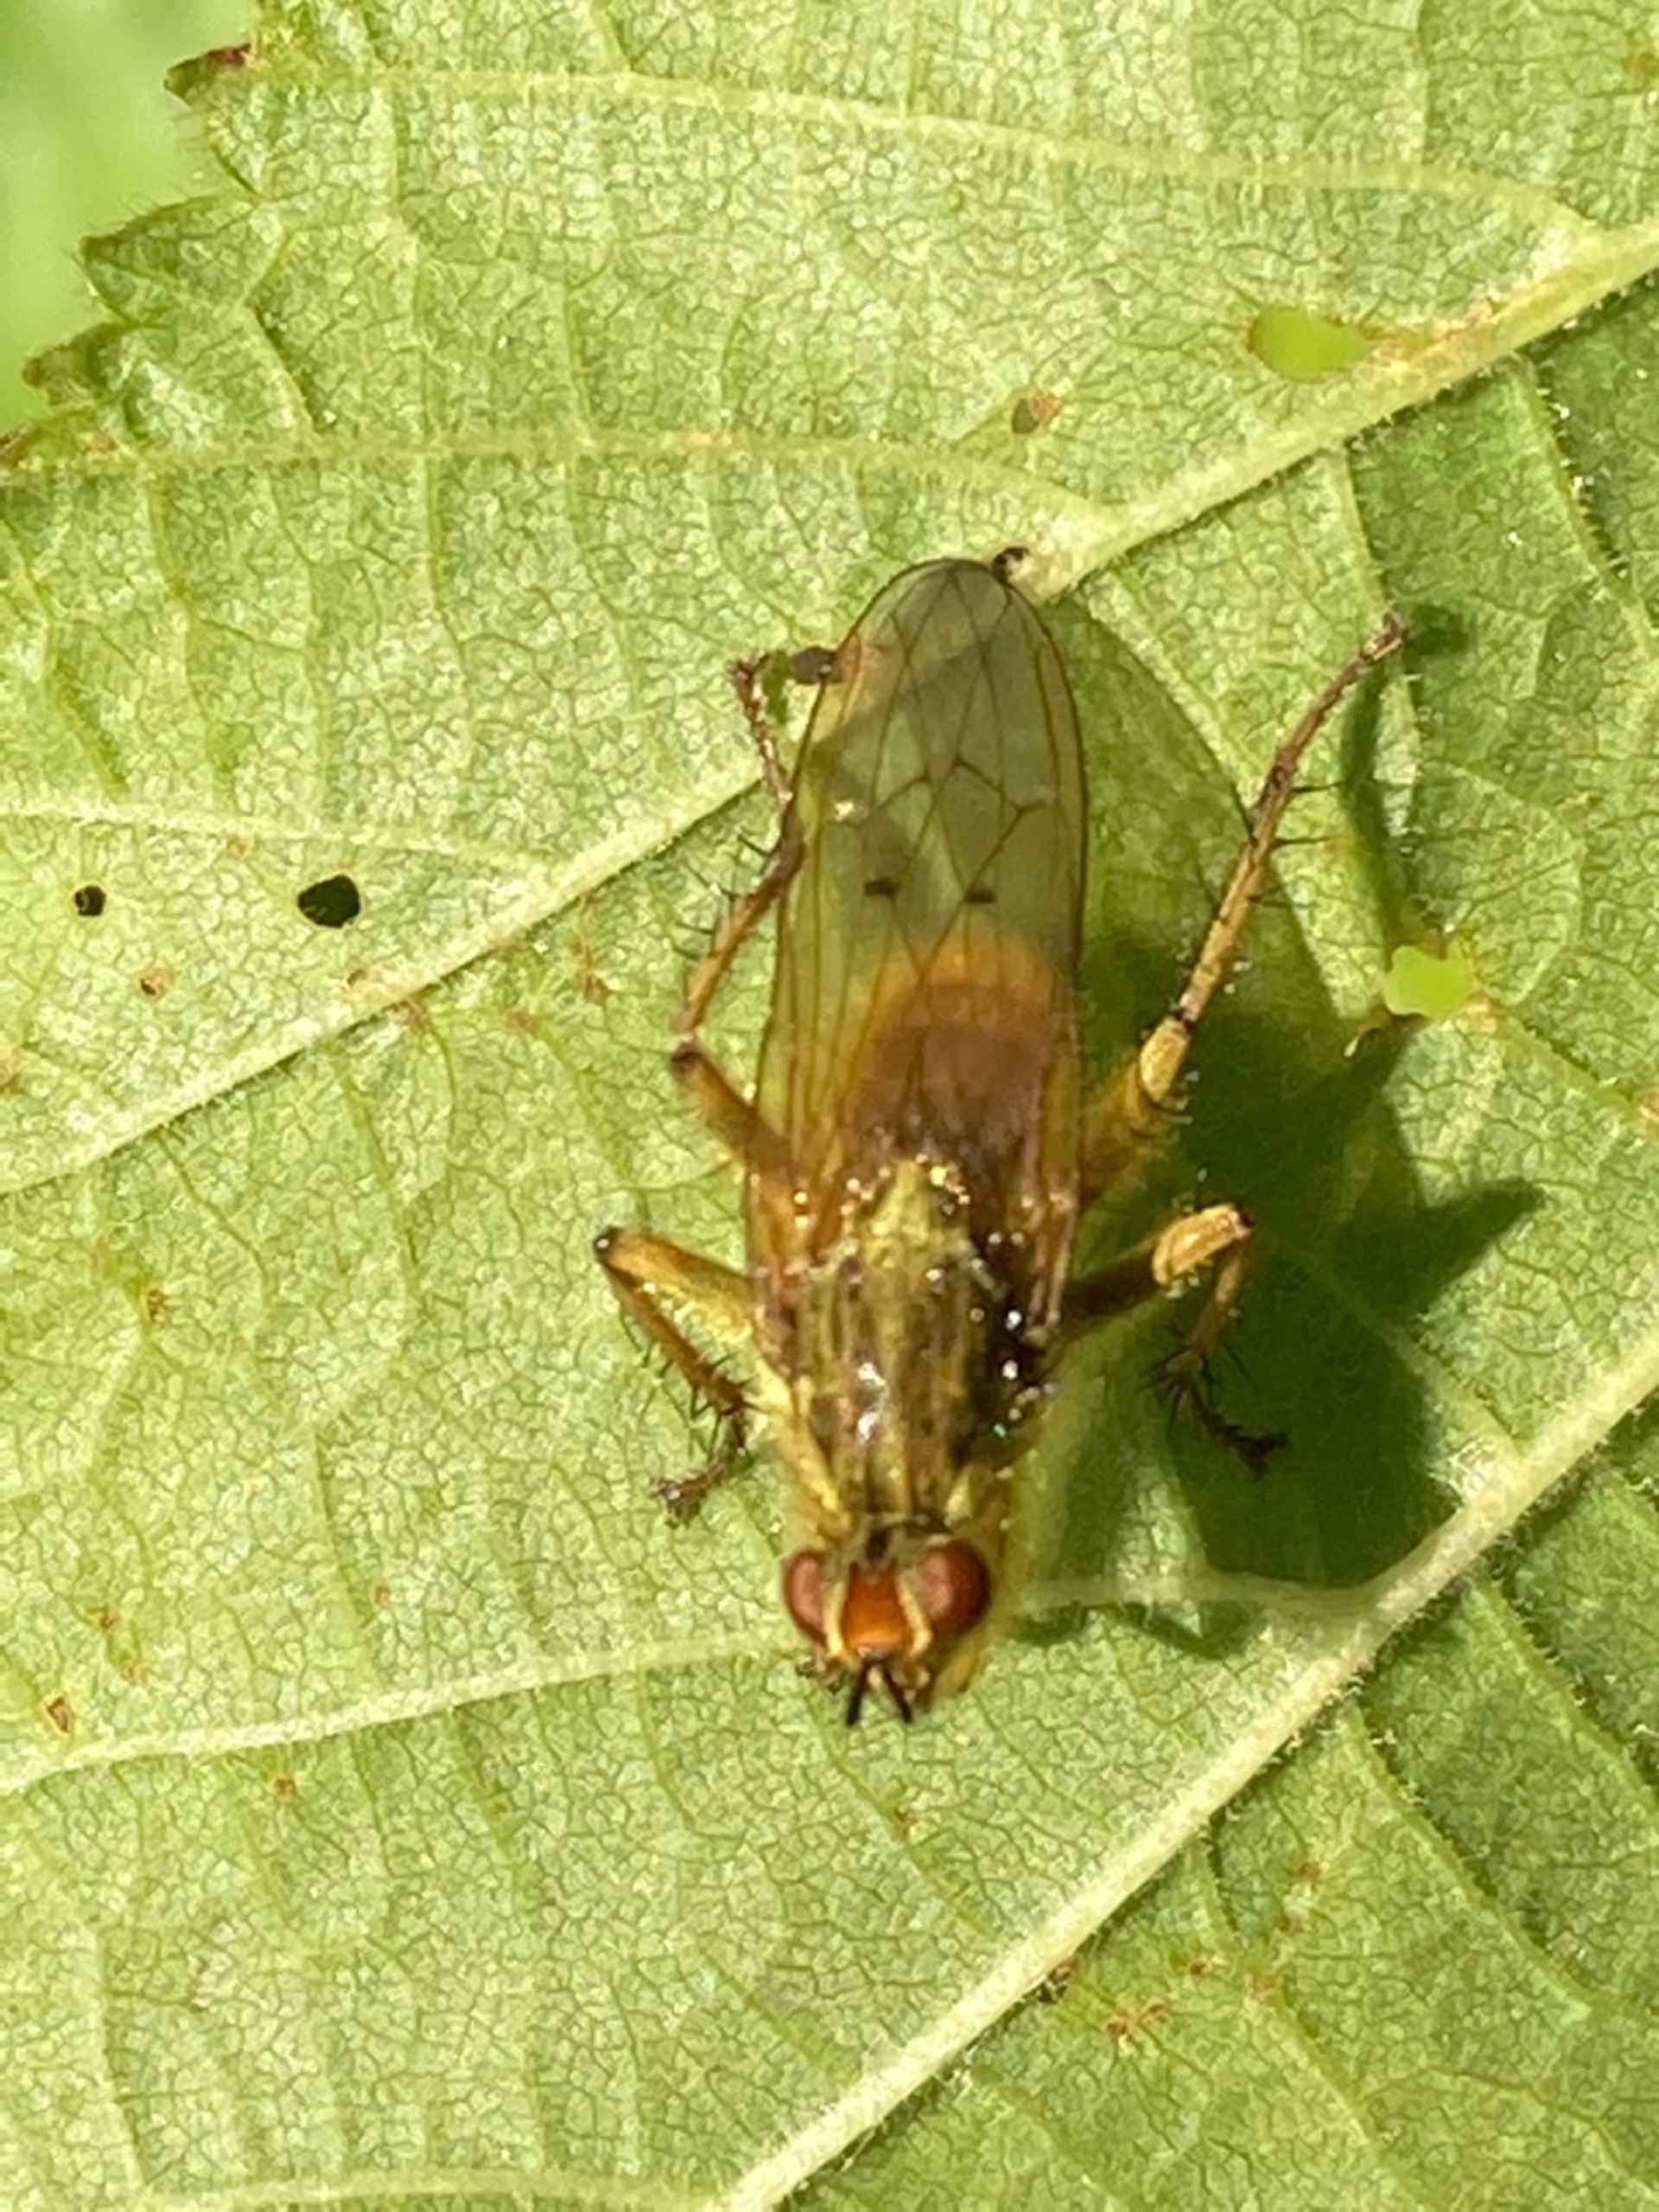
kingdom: Animalia
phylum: Arthropoda
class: Insecta
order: Diptera
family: Scathophagidae
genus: Scathophaga
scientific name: Scathophaga stercoraria
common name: Almindelig gødningsflue
